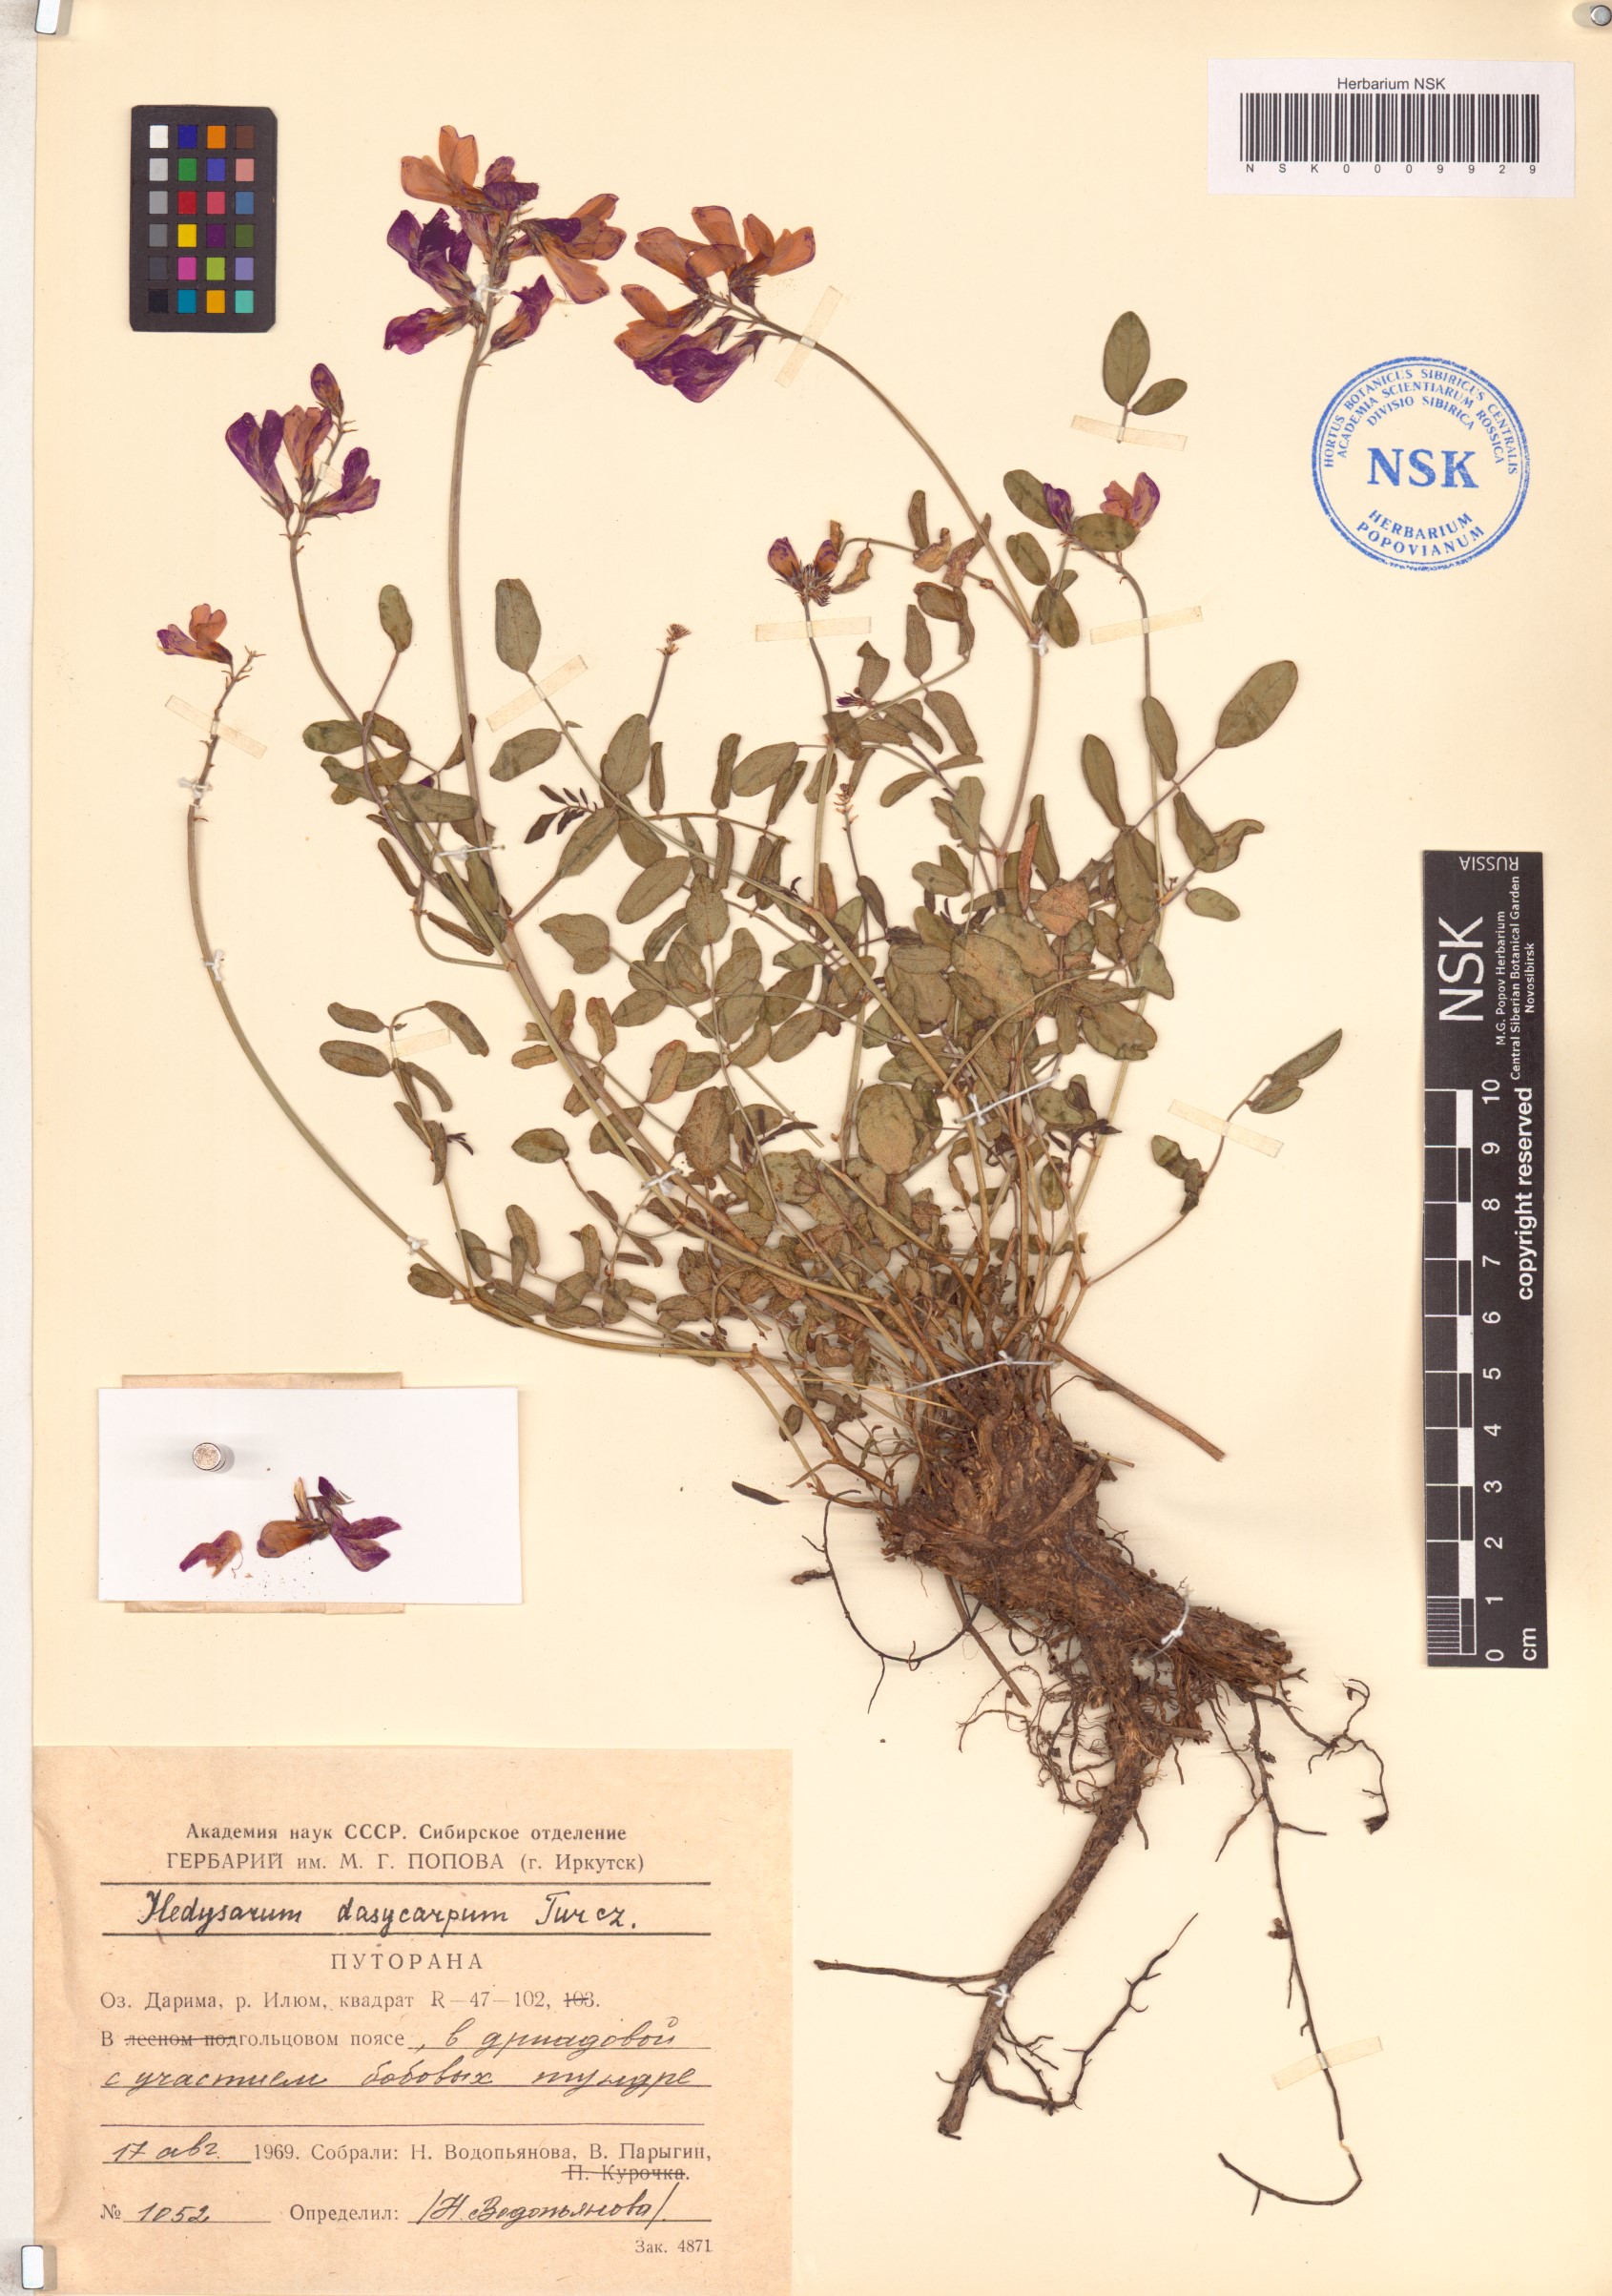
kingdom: Plantae
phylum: Tracheophyta
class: Magnoliopsida
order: Fabales
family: Fabaceae
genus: Hedysarum
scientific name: Hedysarum dasycarpum
